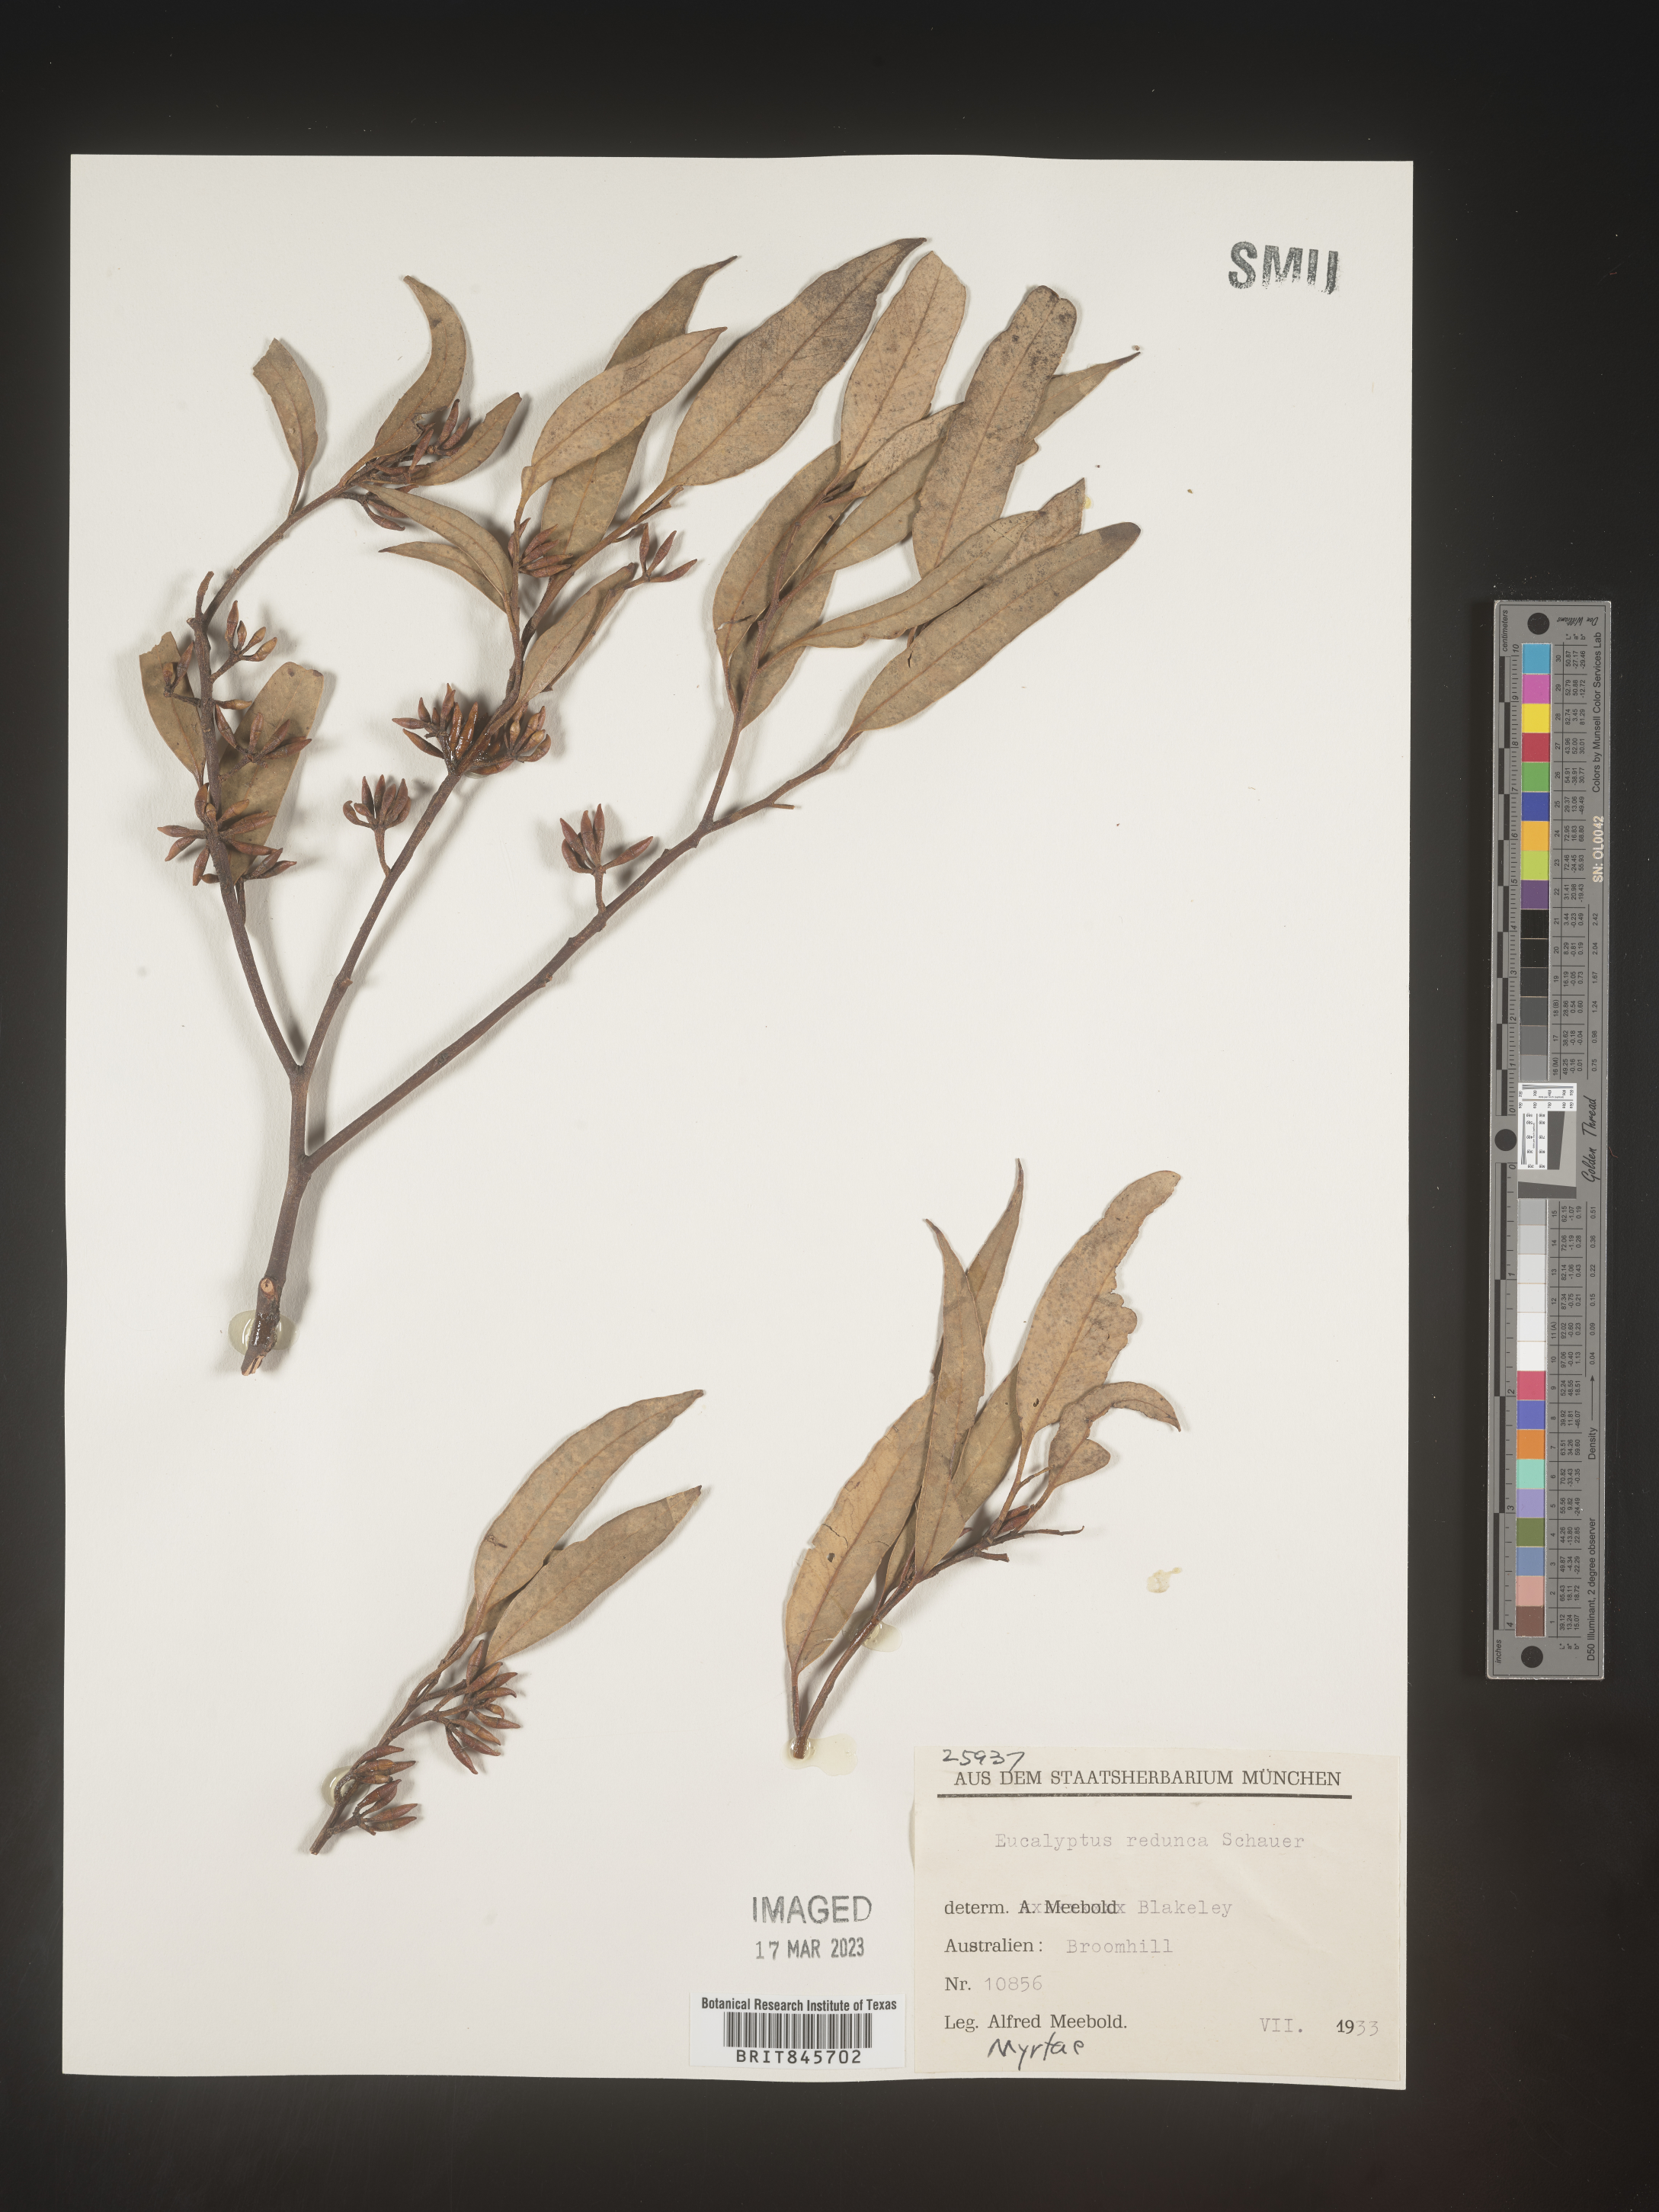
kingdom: Plantae
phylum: Tracheophyta
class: Magnoliopsida
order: Myrtales
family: Myrtaceae
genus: Eucalyptus
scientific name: Eucalyptus
